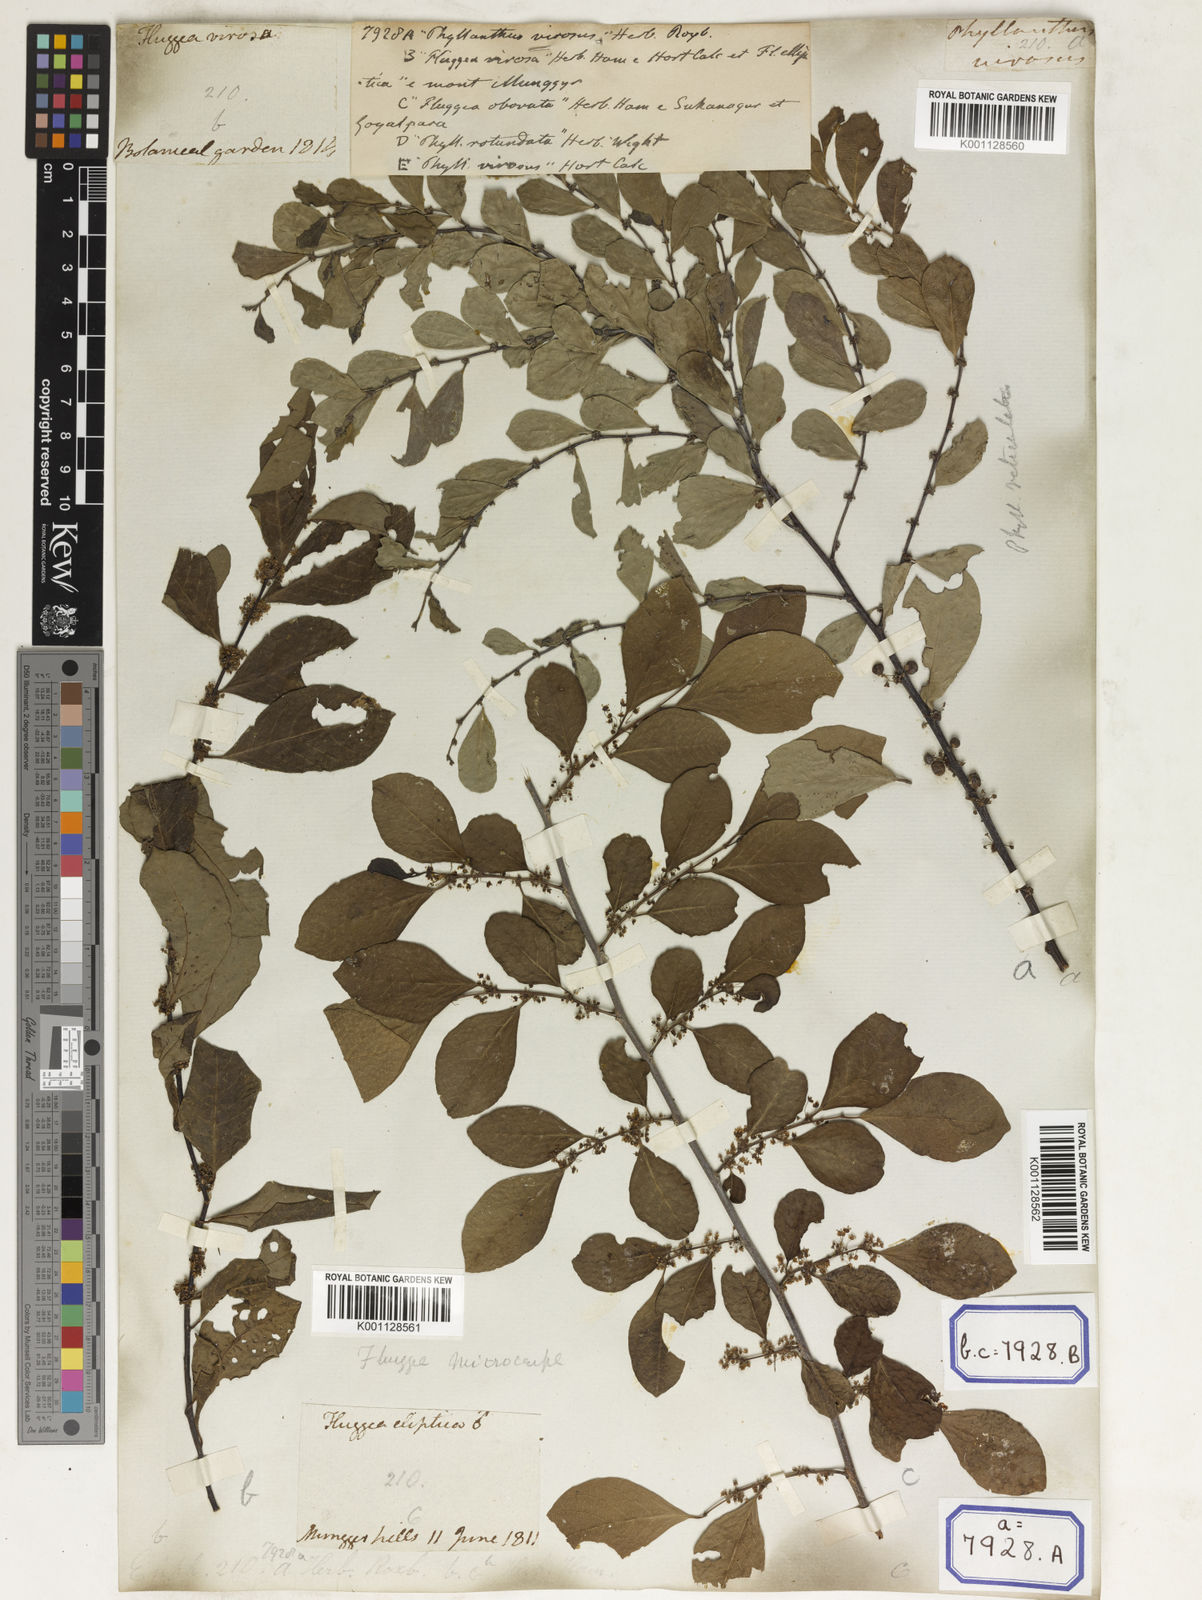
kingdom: Plantae
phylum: Tracheophyta
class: Magnoliopsida
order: Malpighiales
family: Euphorbiaceae
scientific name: Euphorbiaceae
